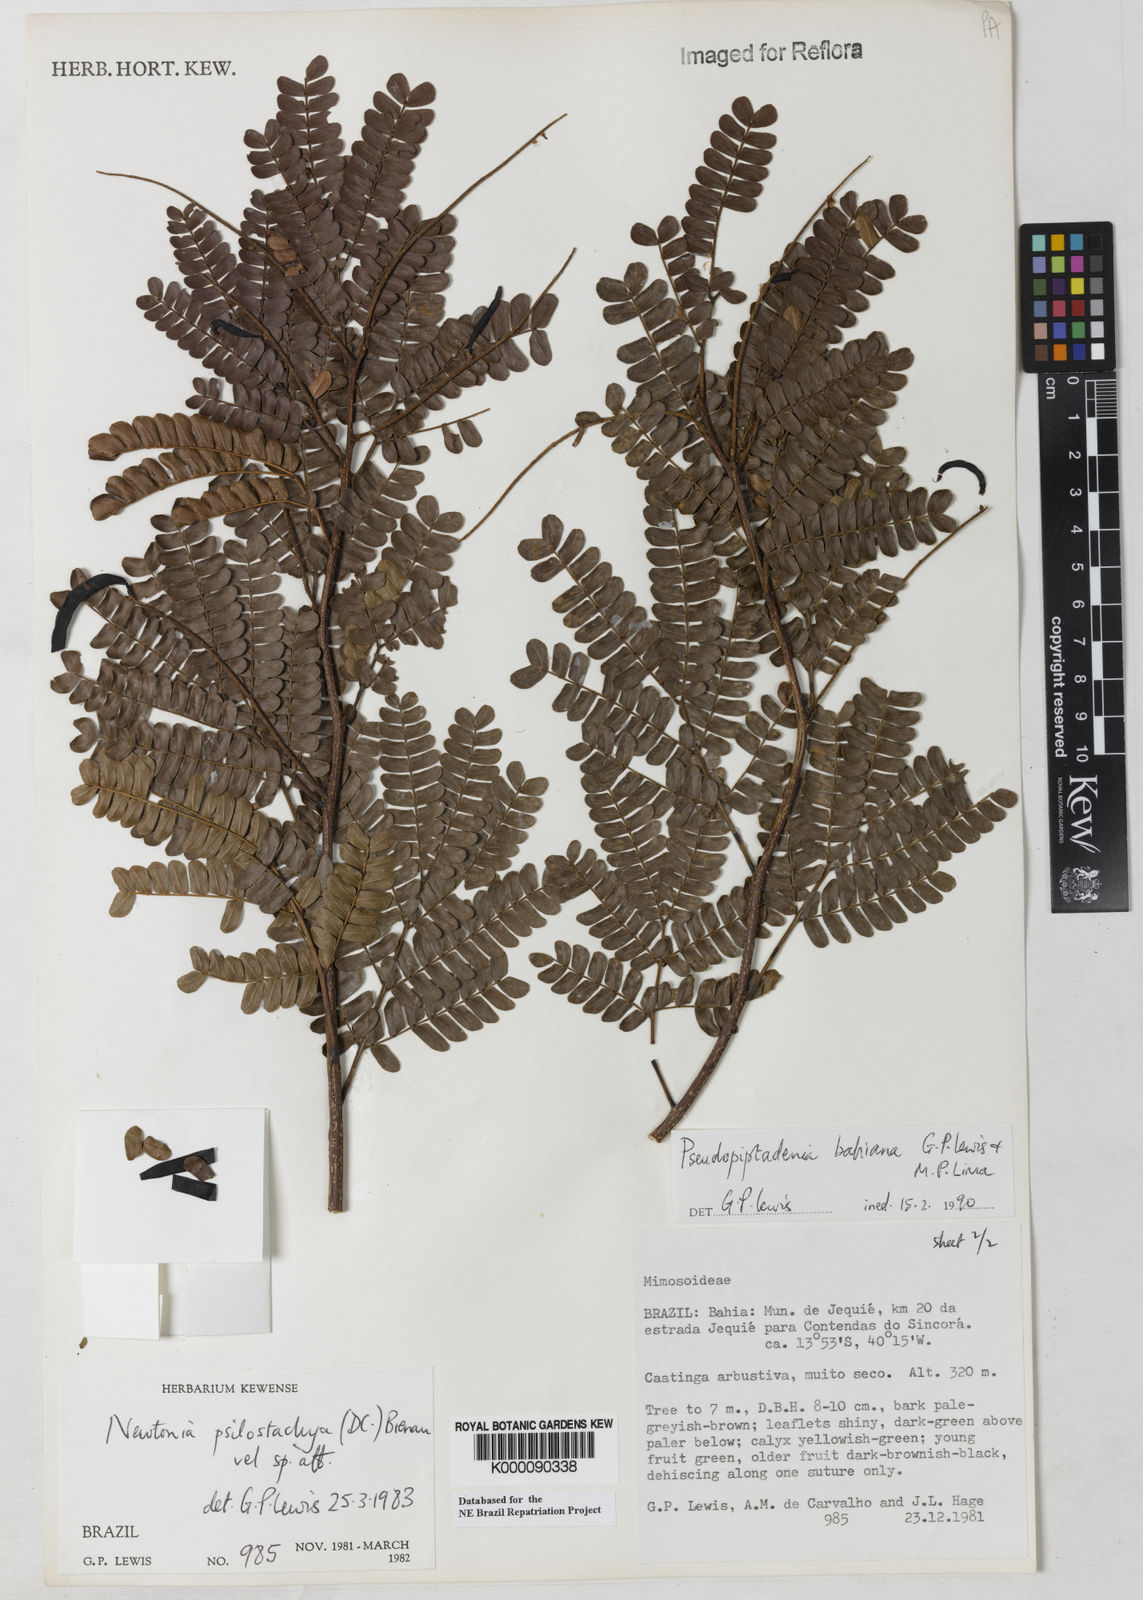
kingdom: Plantae
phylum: Tracheophyta
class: Magnoliopsida
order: Fabales
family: Fabaceae
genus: Pseudopiptadenia
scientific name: Pseudopiptadenia bahiana
